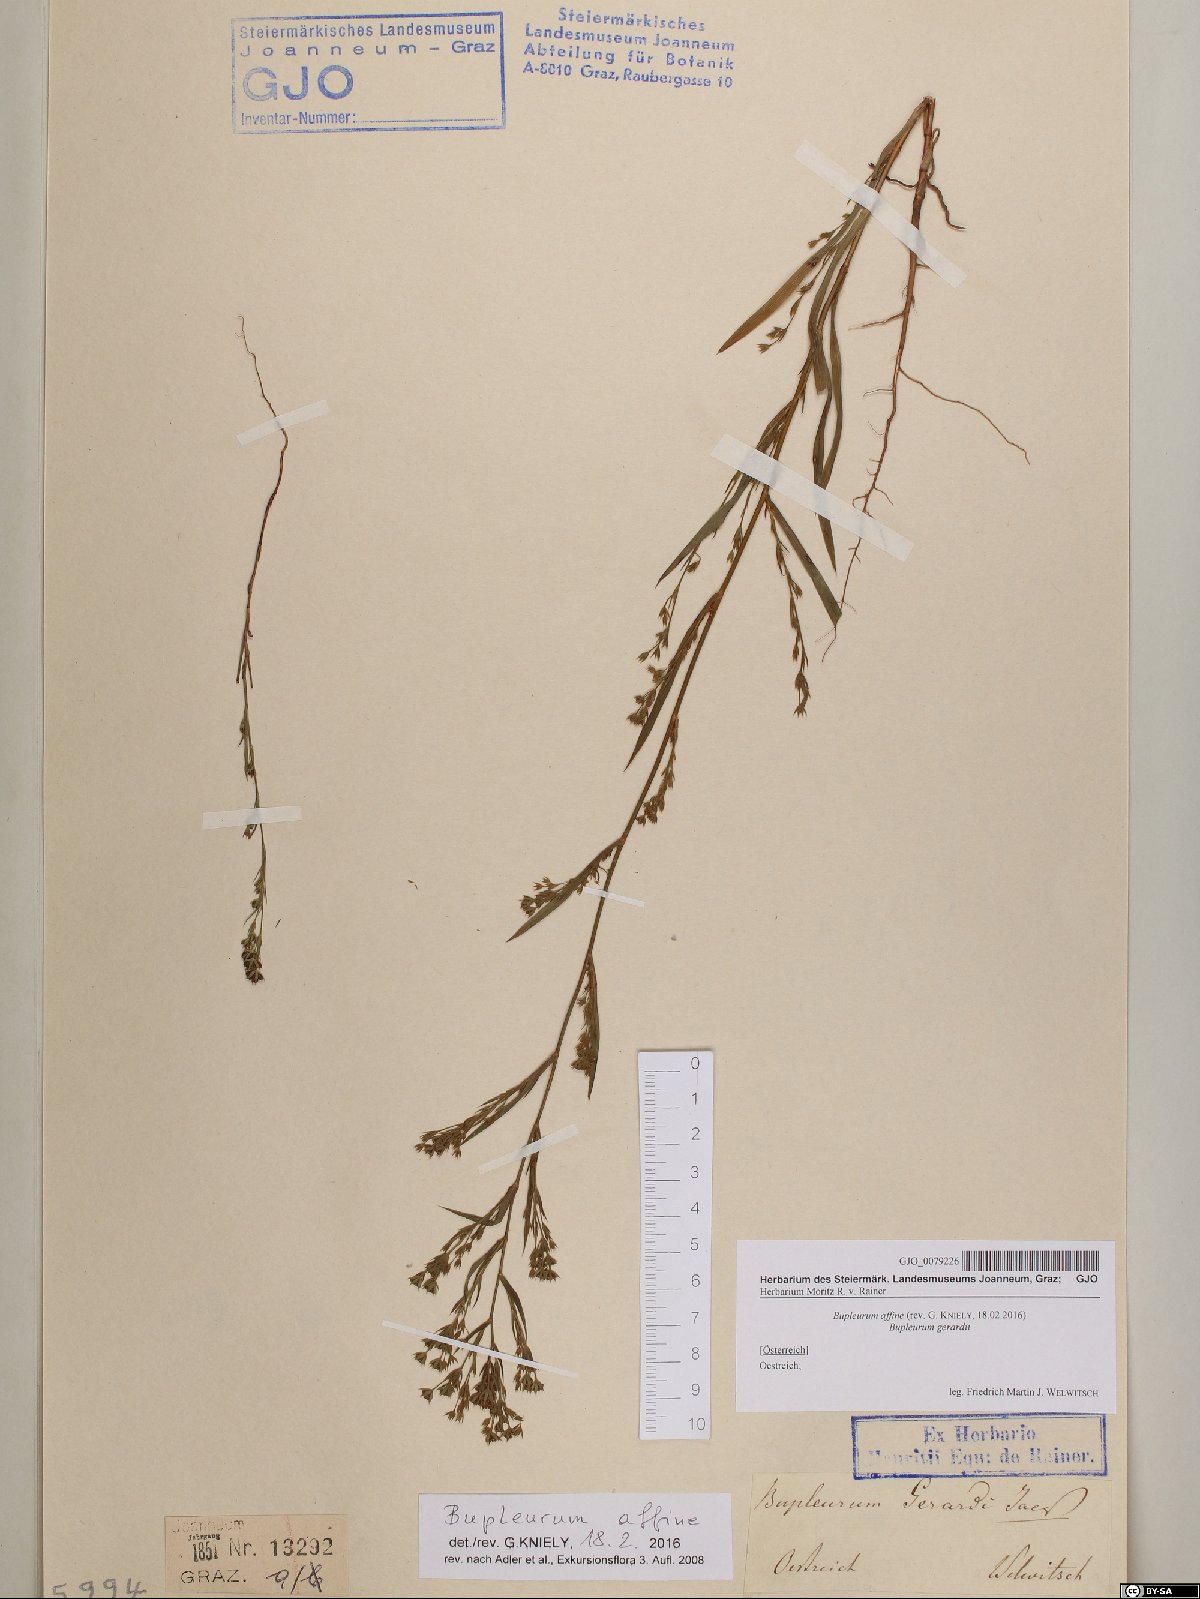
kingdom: Plantae
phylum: Tracheophyta
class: Magnoliopsida
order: Apiales
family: Apiaceae
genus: Bupleurum
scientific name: Bupleurum affine
